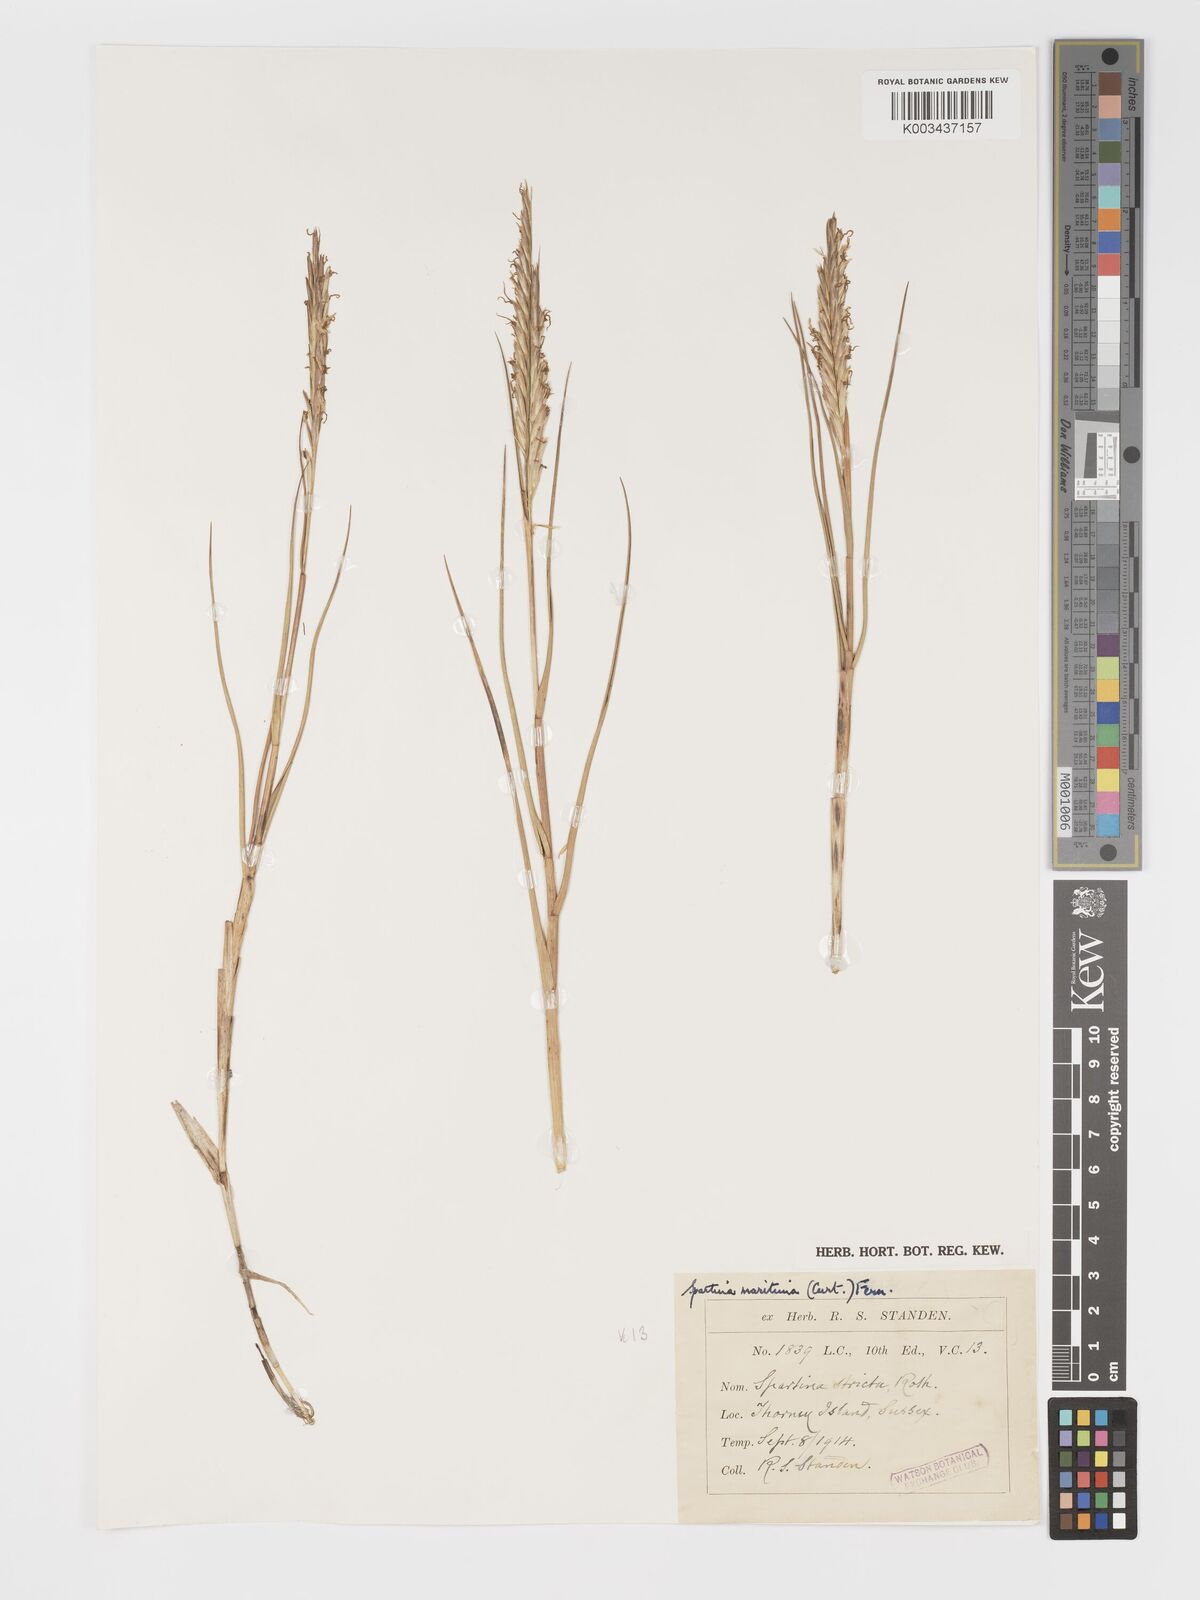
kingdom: Plantae
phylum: Tracheophyta
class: Liliopsida
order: Poales
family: Poaceae
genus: Sporobolus
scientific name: Sporobolus maritimus
